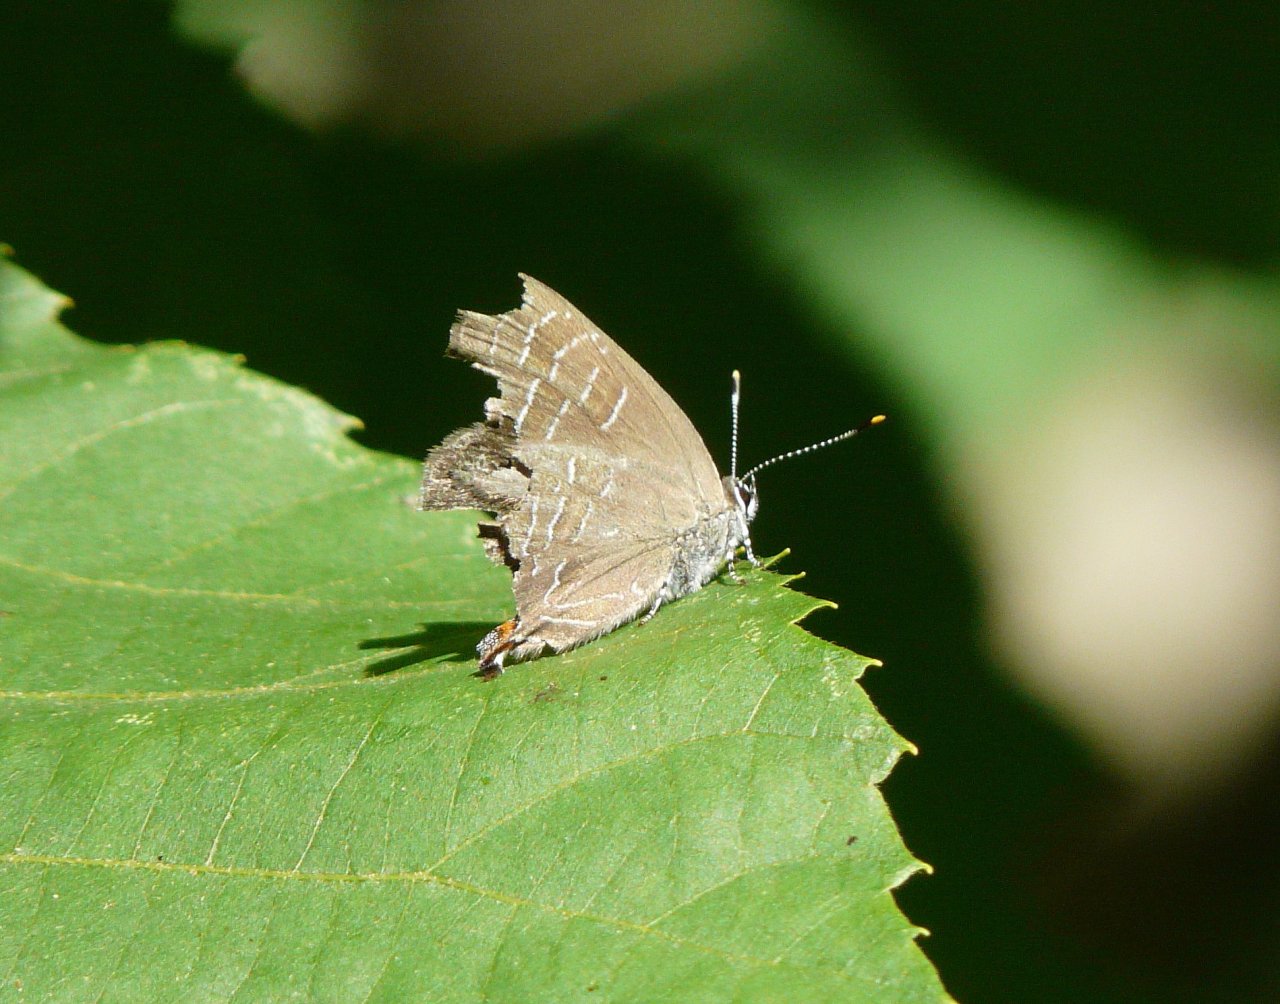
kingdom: Animalia
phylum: Arthropoda
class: Insecta
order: Lepidoptera
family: Lycaenidae
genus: Satyrium
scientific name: Satyrium liparops
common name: Striped Hairstreak
